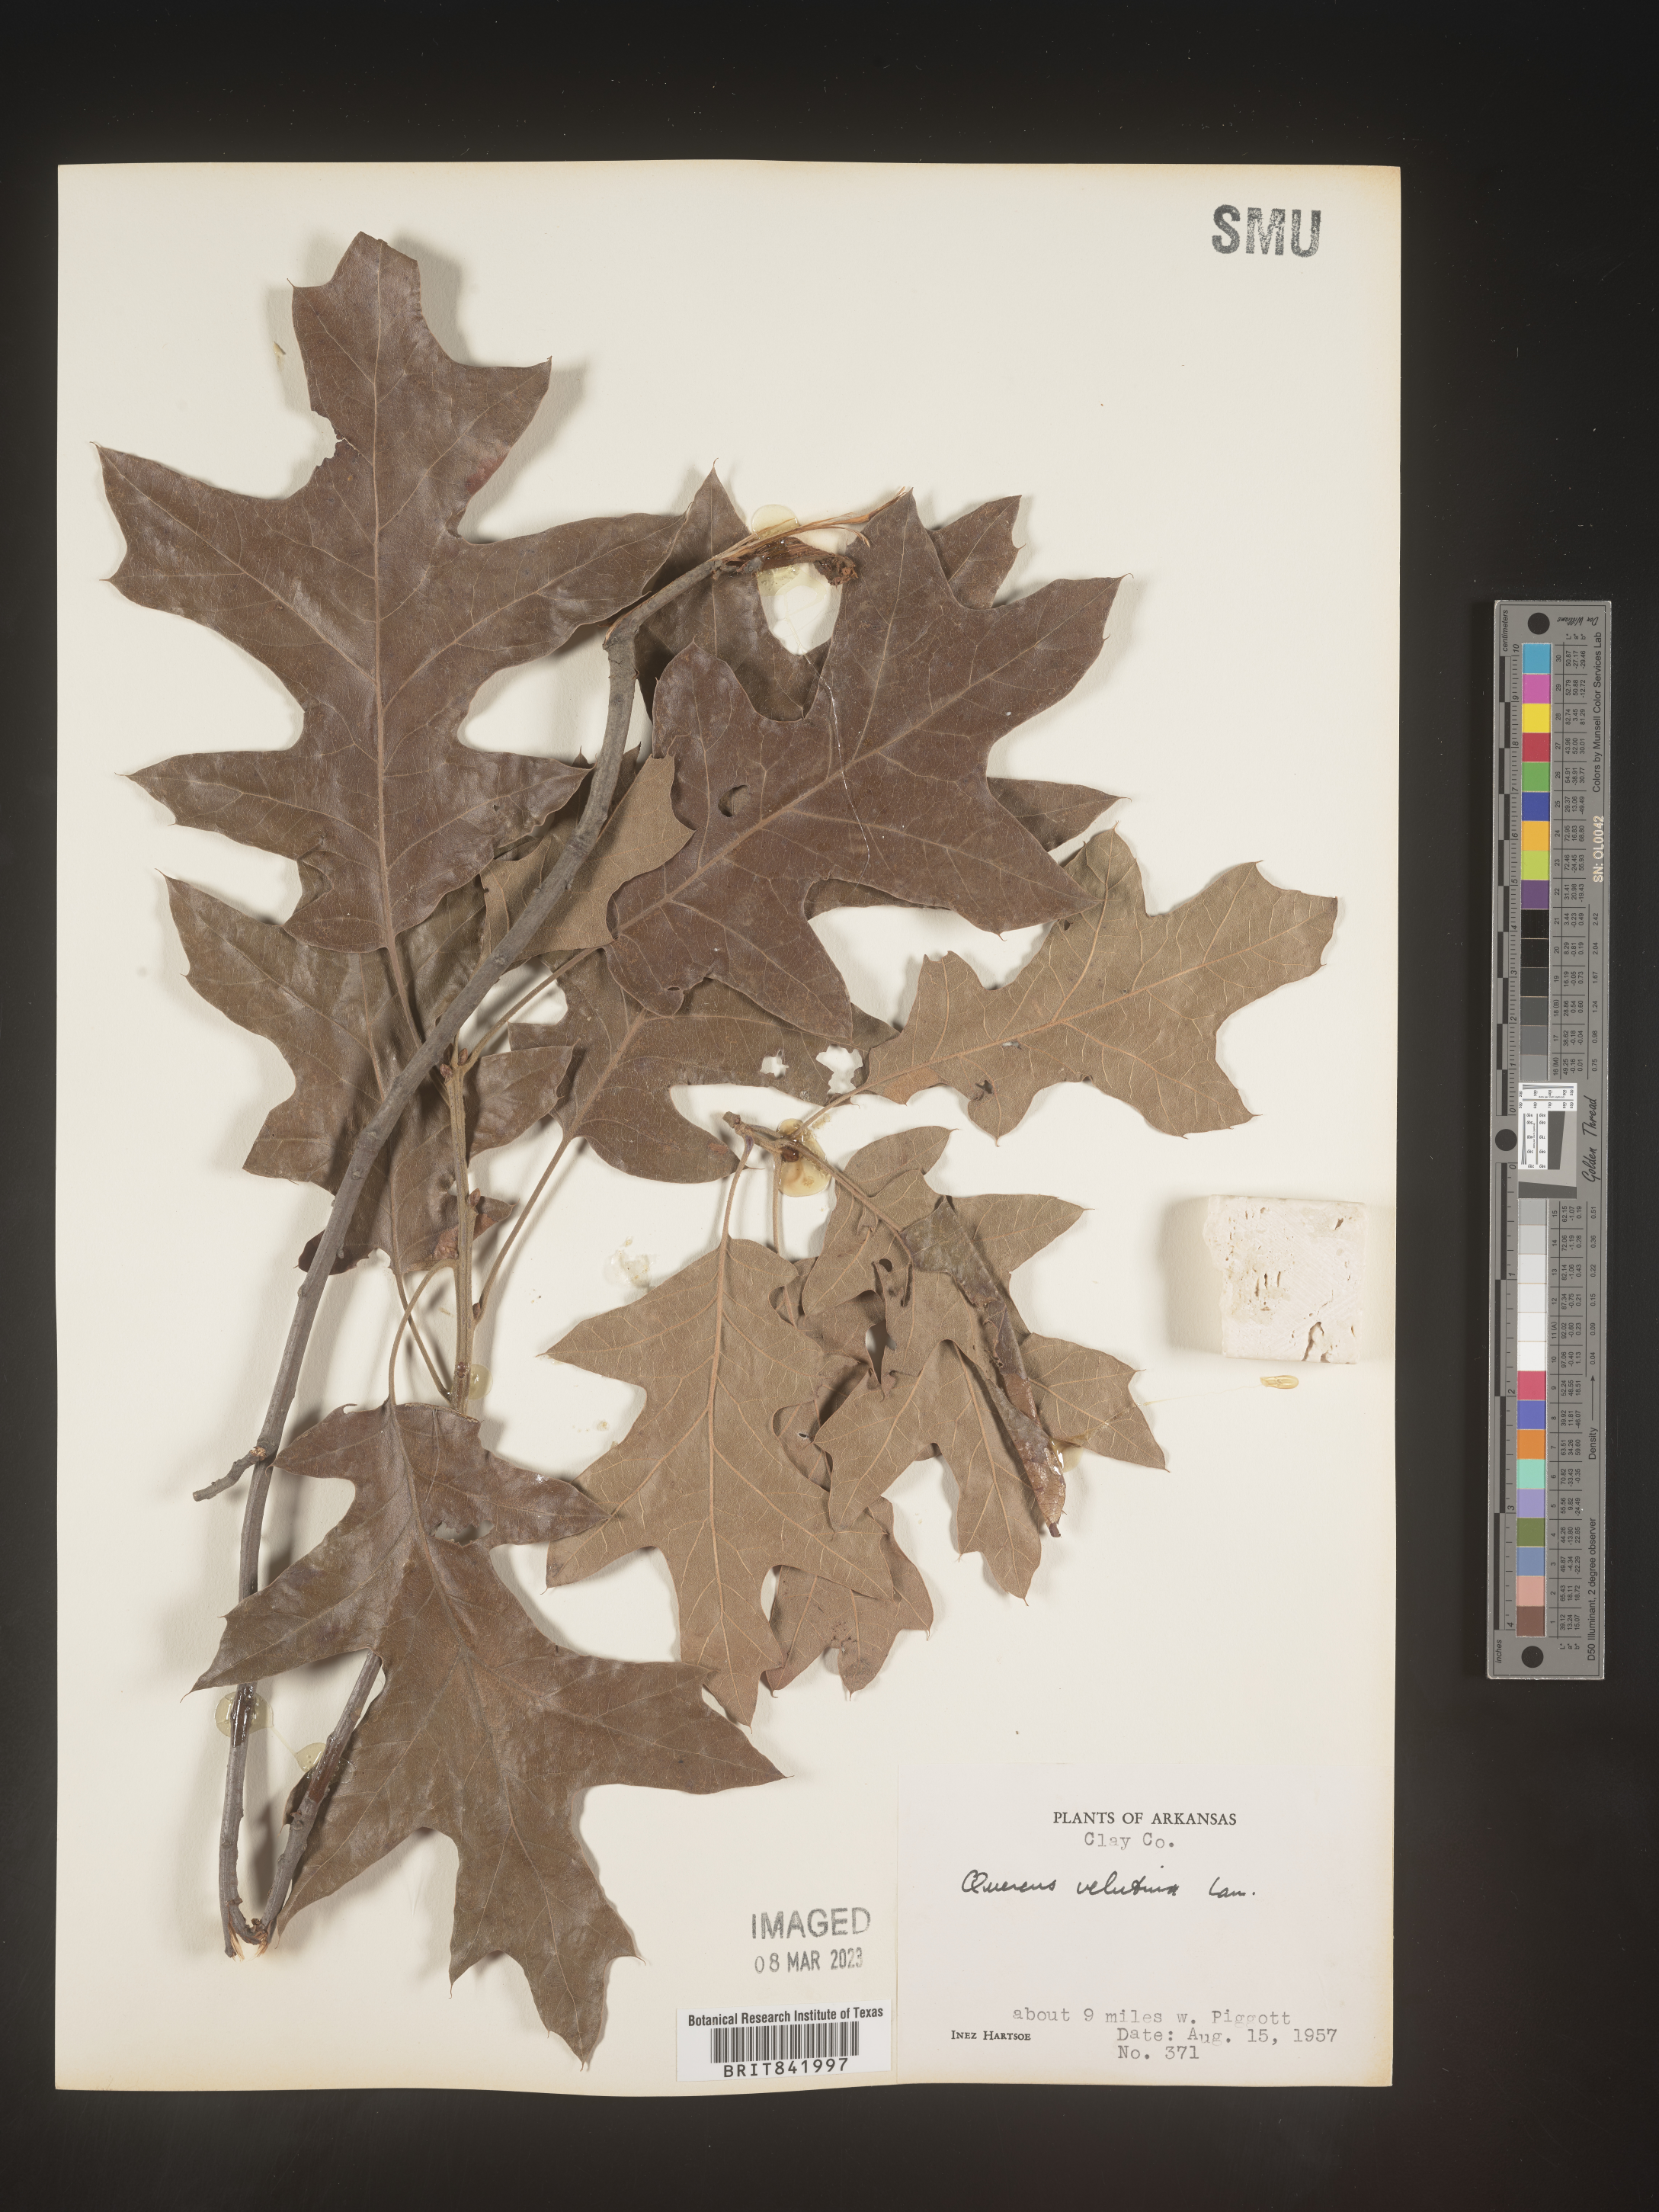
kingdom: Plantae
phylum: Tracheophyta
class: Magnoliopsida
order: Fagales
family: Fagaceae
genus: Quercus
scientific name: Quercus velutina
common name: Black oak
